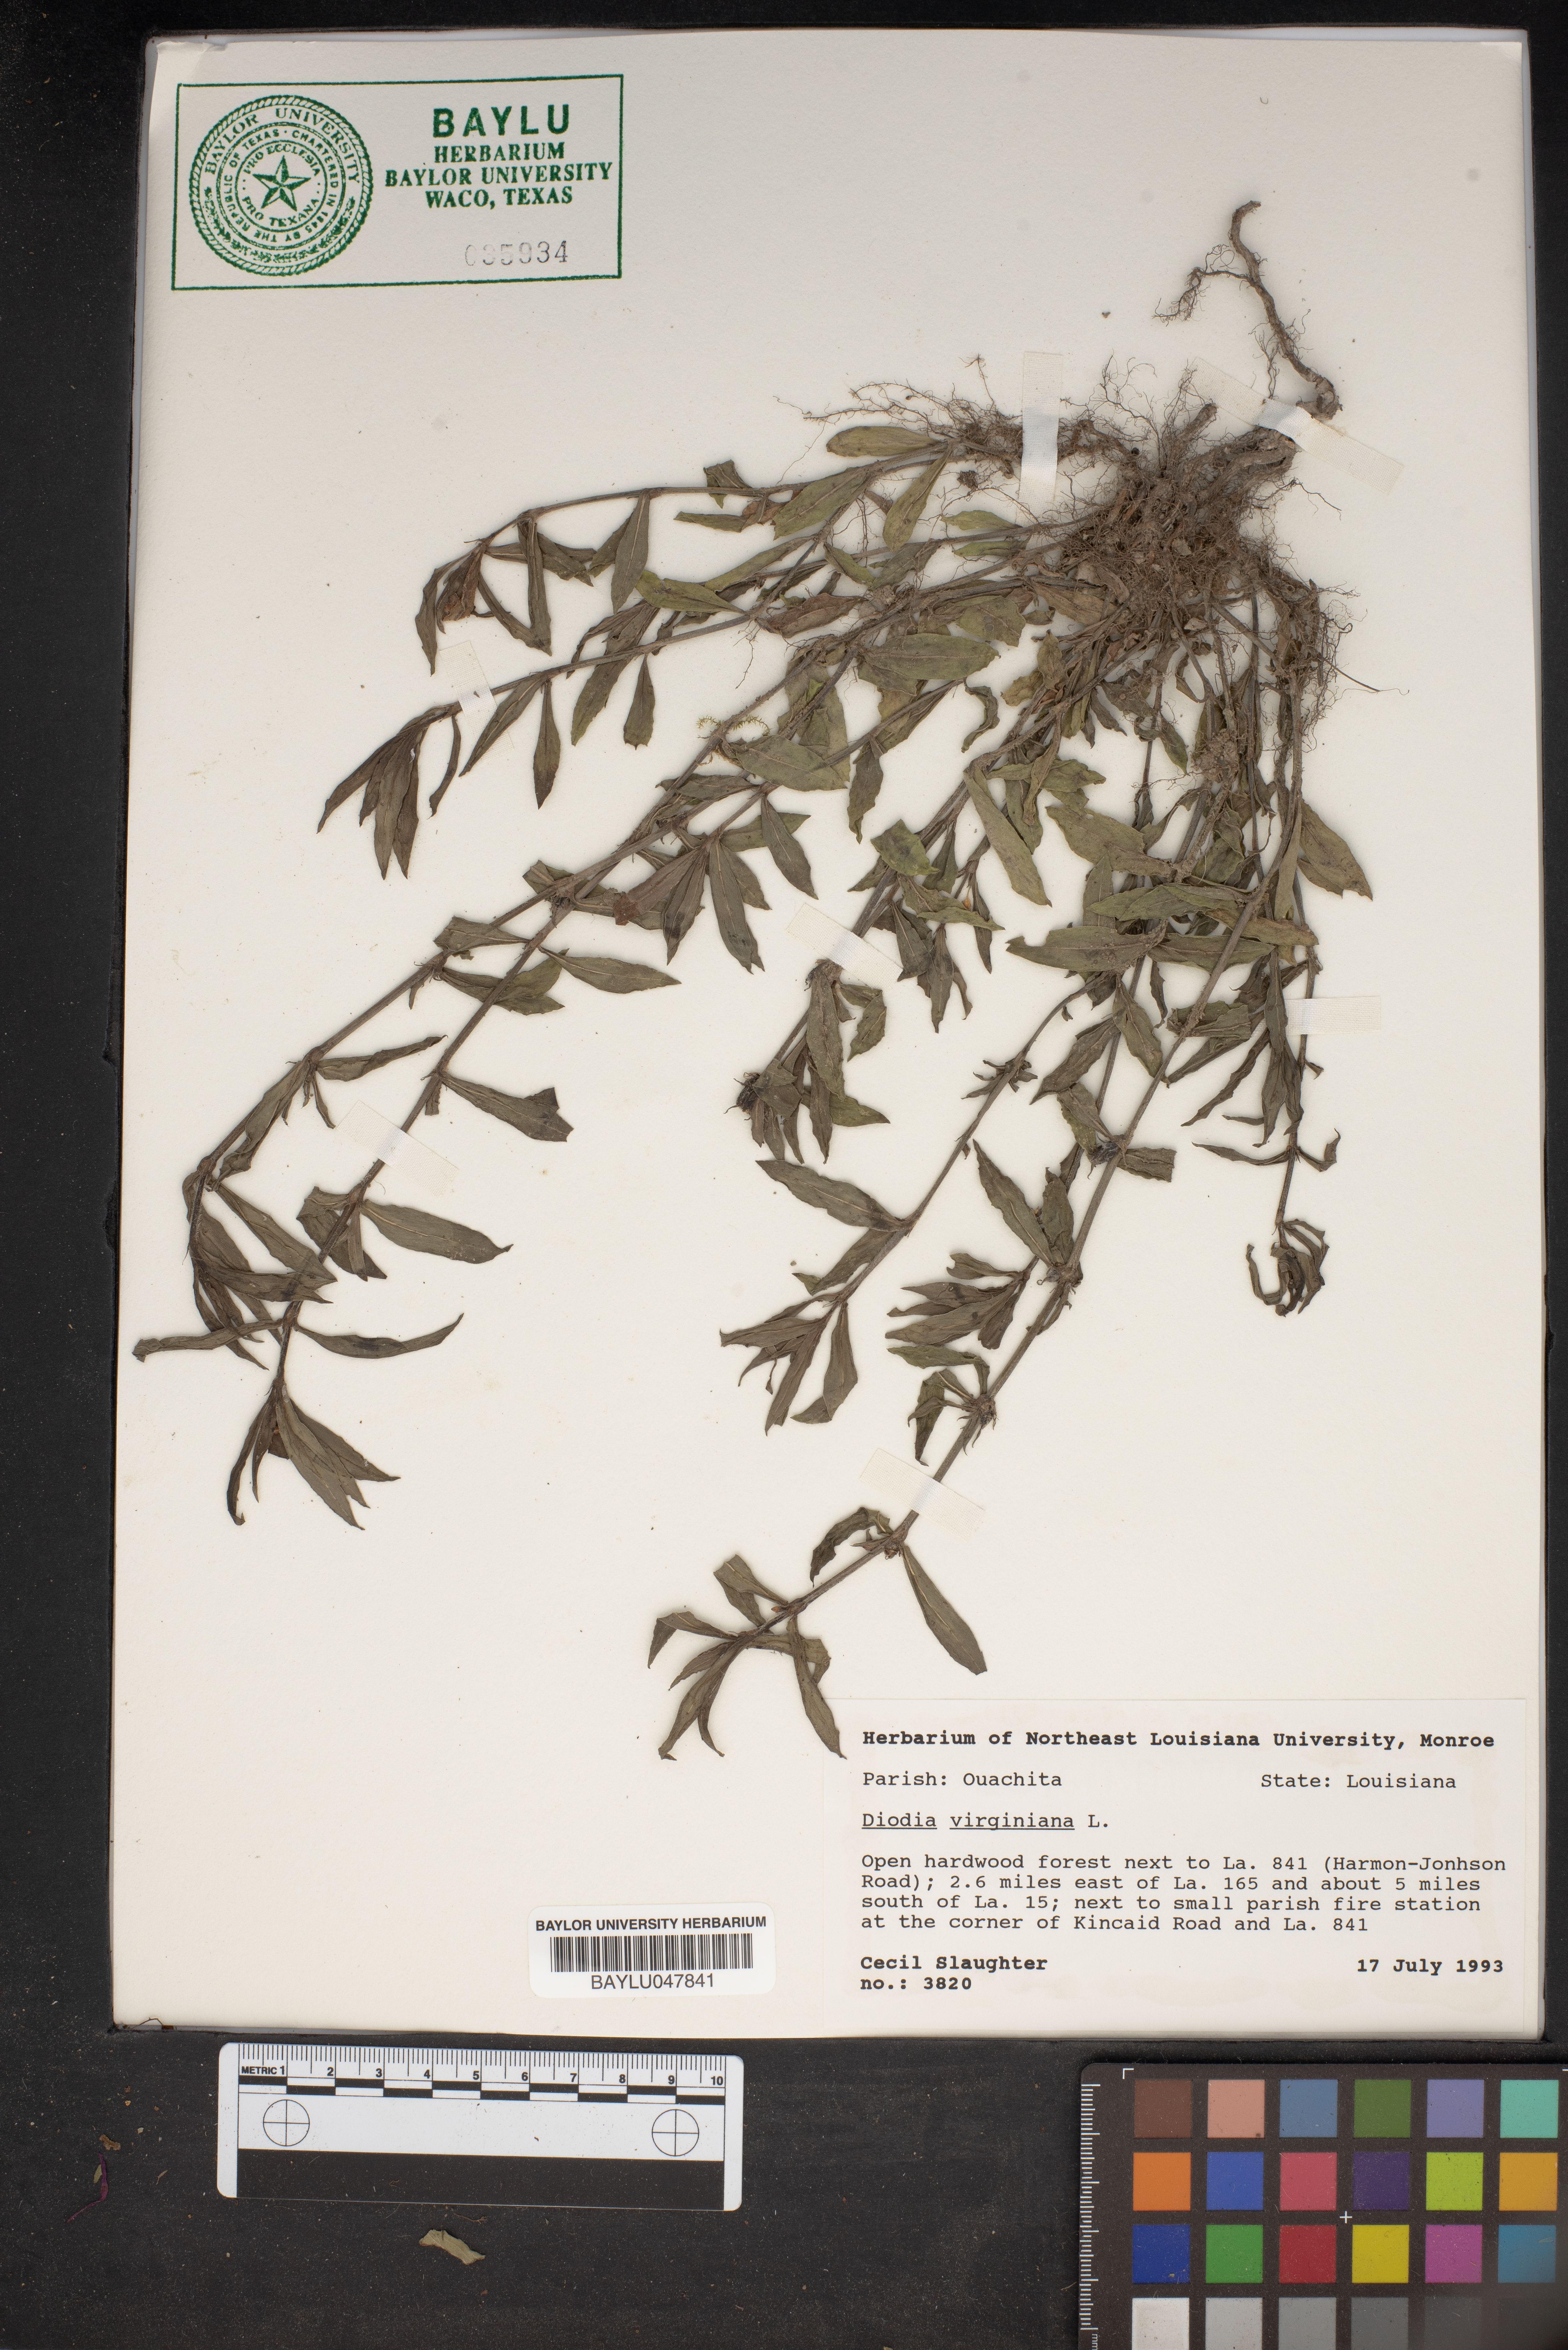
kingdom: Plantae
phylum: Tracheophyta
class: Magnoliopsida
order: Gentianales
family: Rubiaceae
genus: Diodia
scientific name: Diodia virginiana
